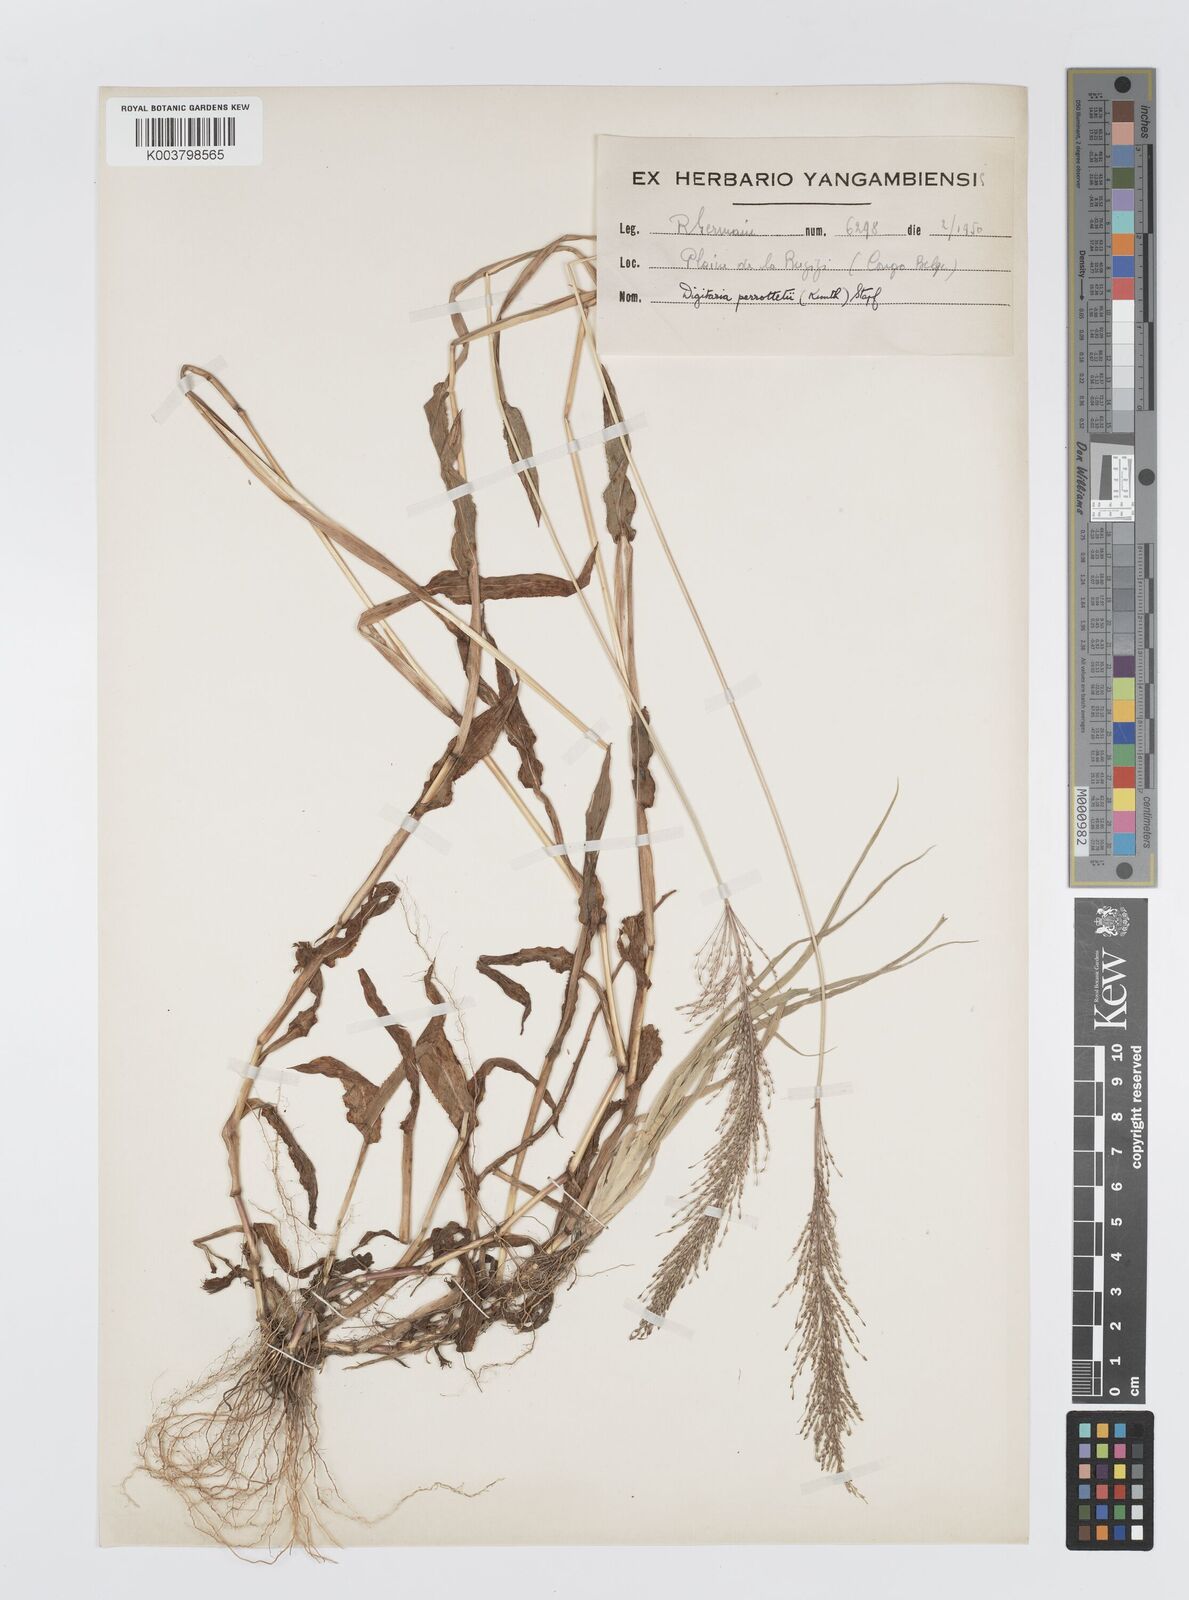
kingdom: Plantae
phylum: Tracheophyta
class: Liliopsida
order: Poales
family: Poaceae
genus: Digitaria
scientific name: Digitaria perrottetii
